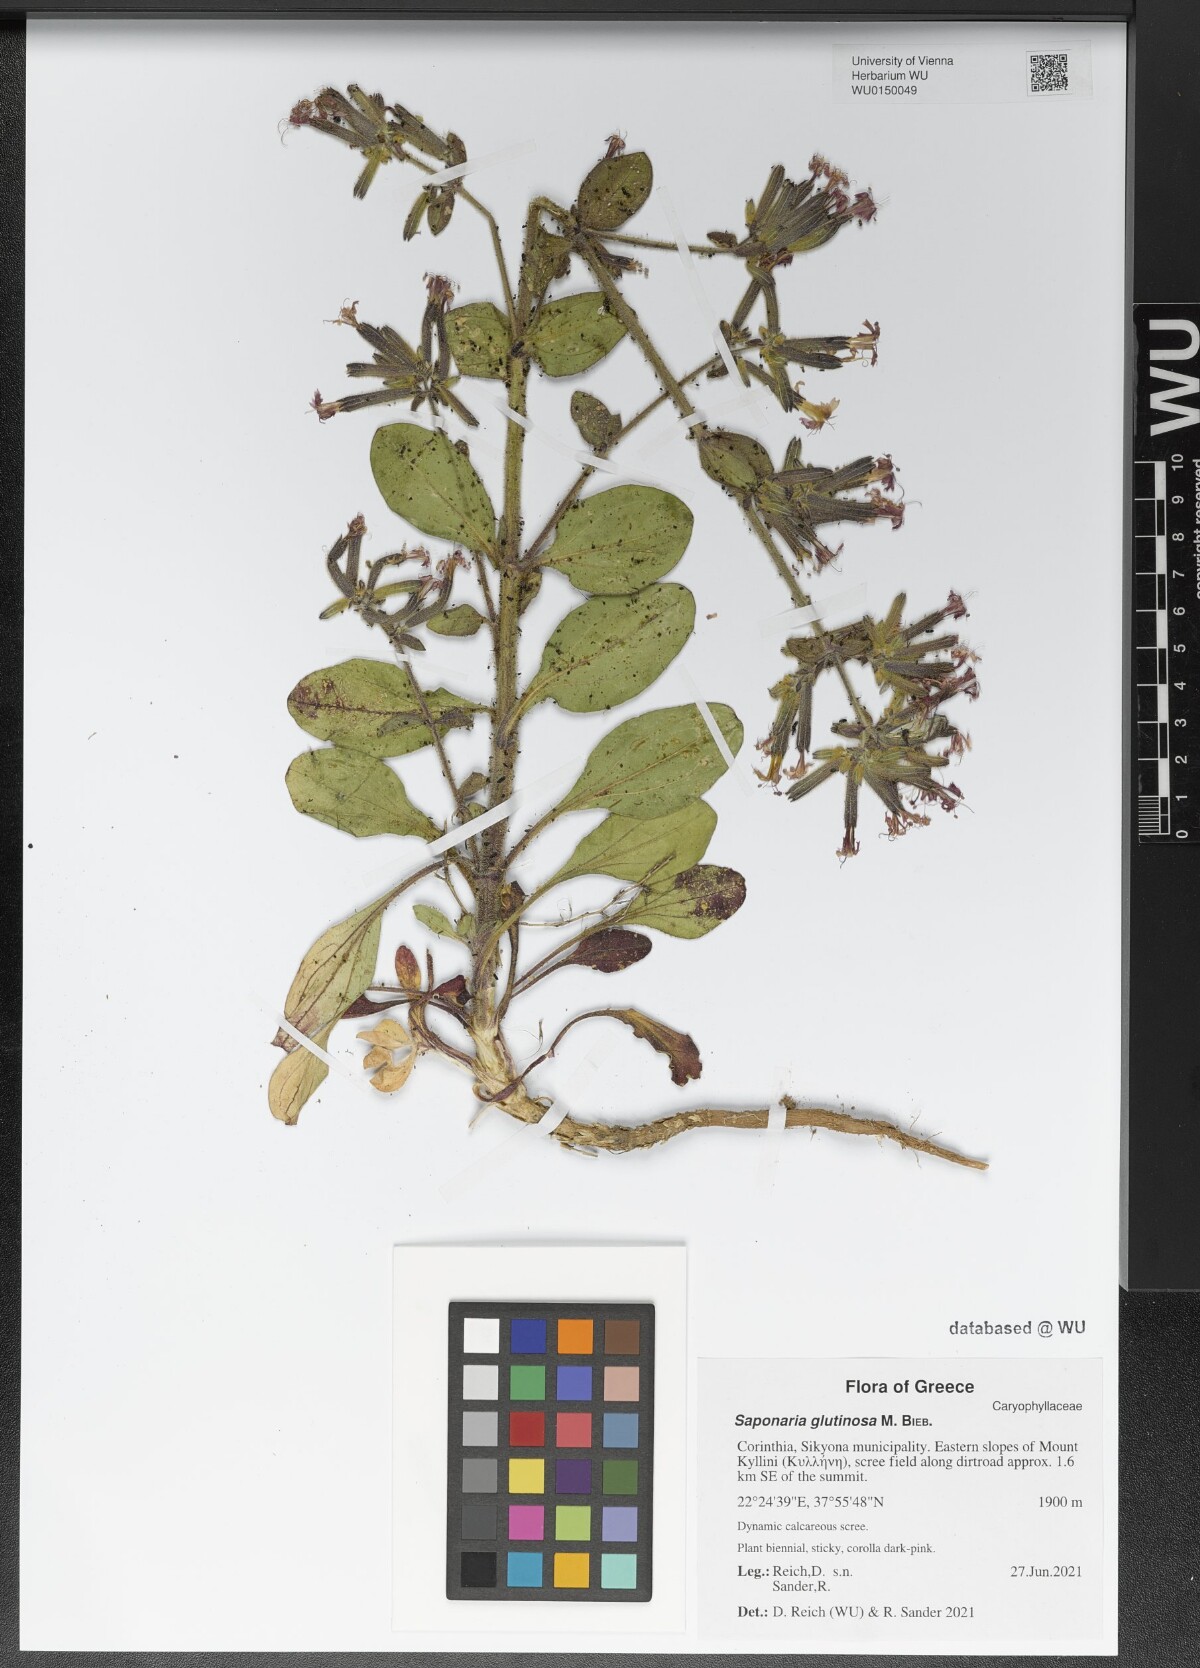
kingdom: Plantae
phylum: Tracheophyta
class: Magnoliopsida
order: Caryophyllales
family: Caryophyllaceae
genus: Saponaria
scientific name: Saponaria glutinosa
